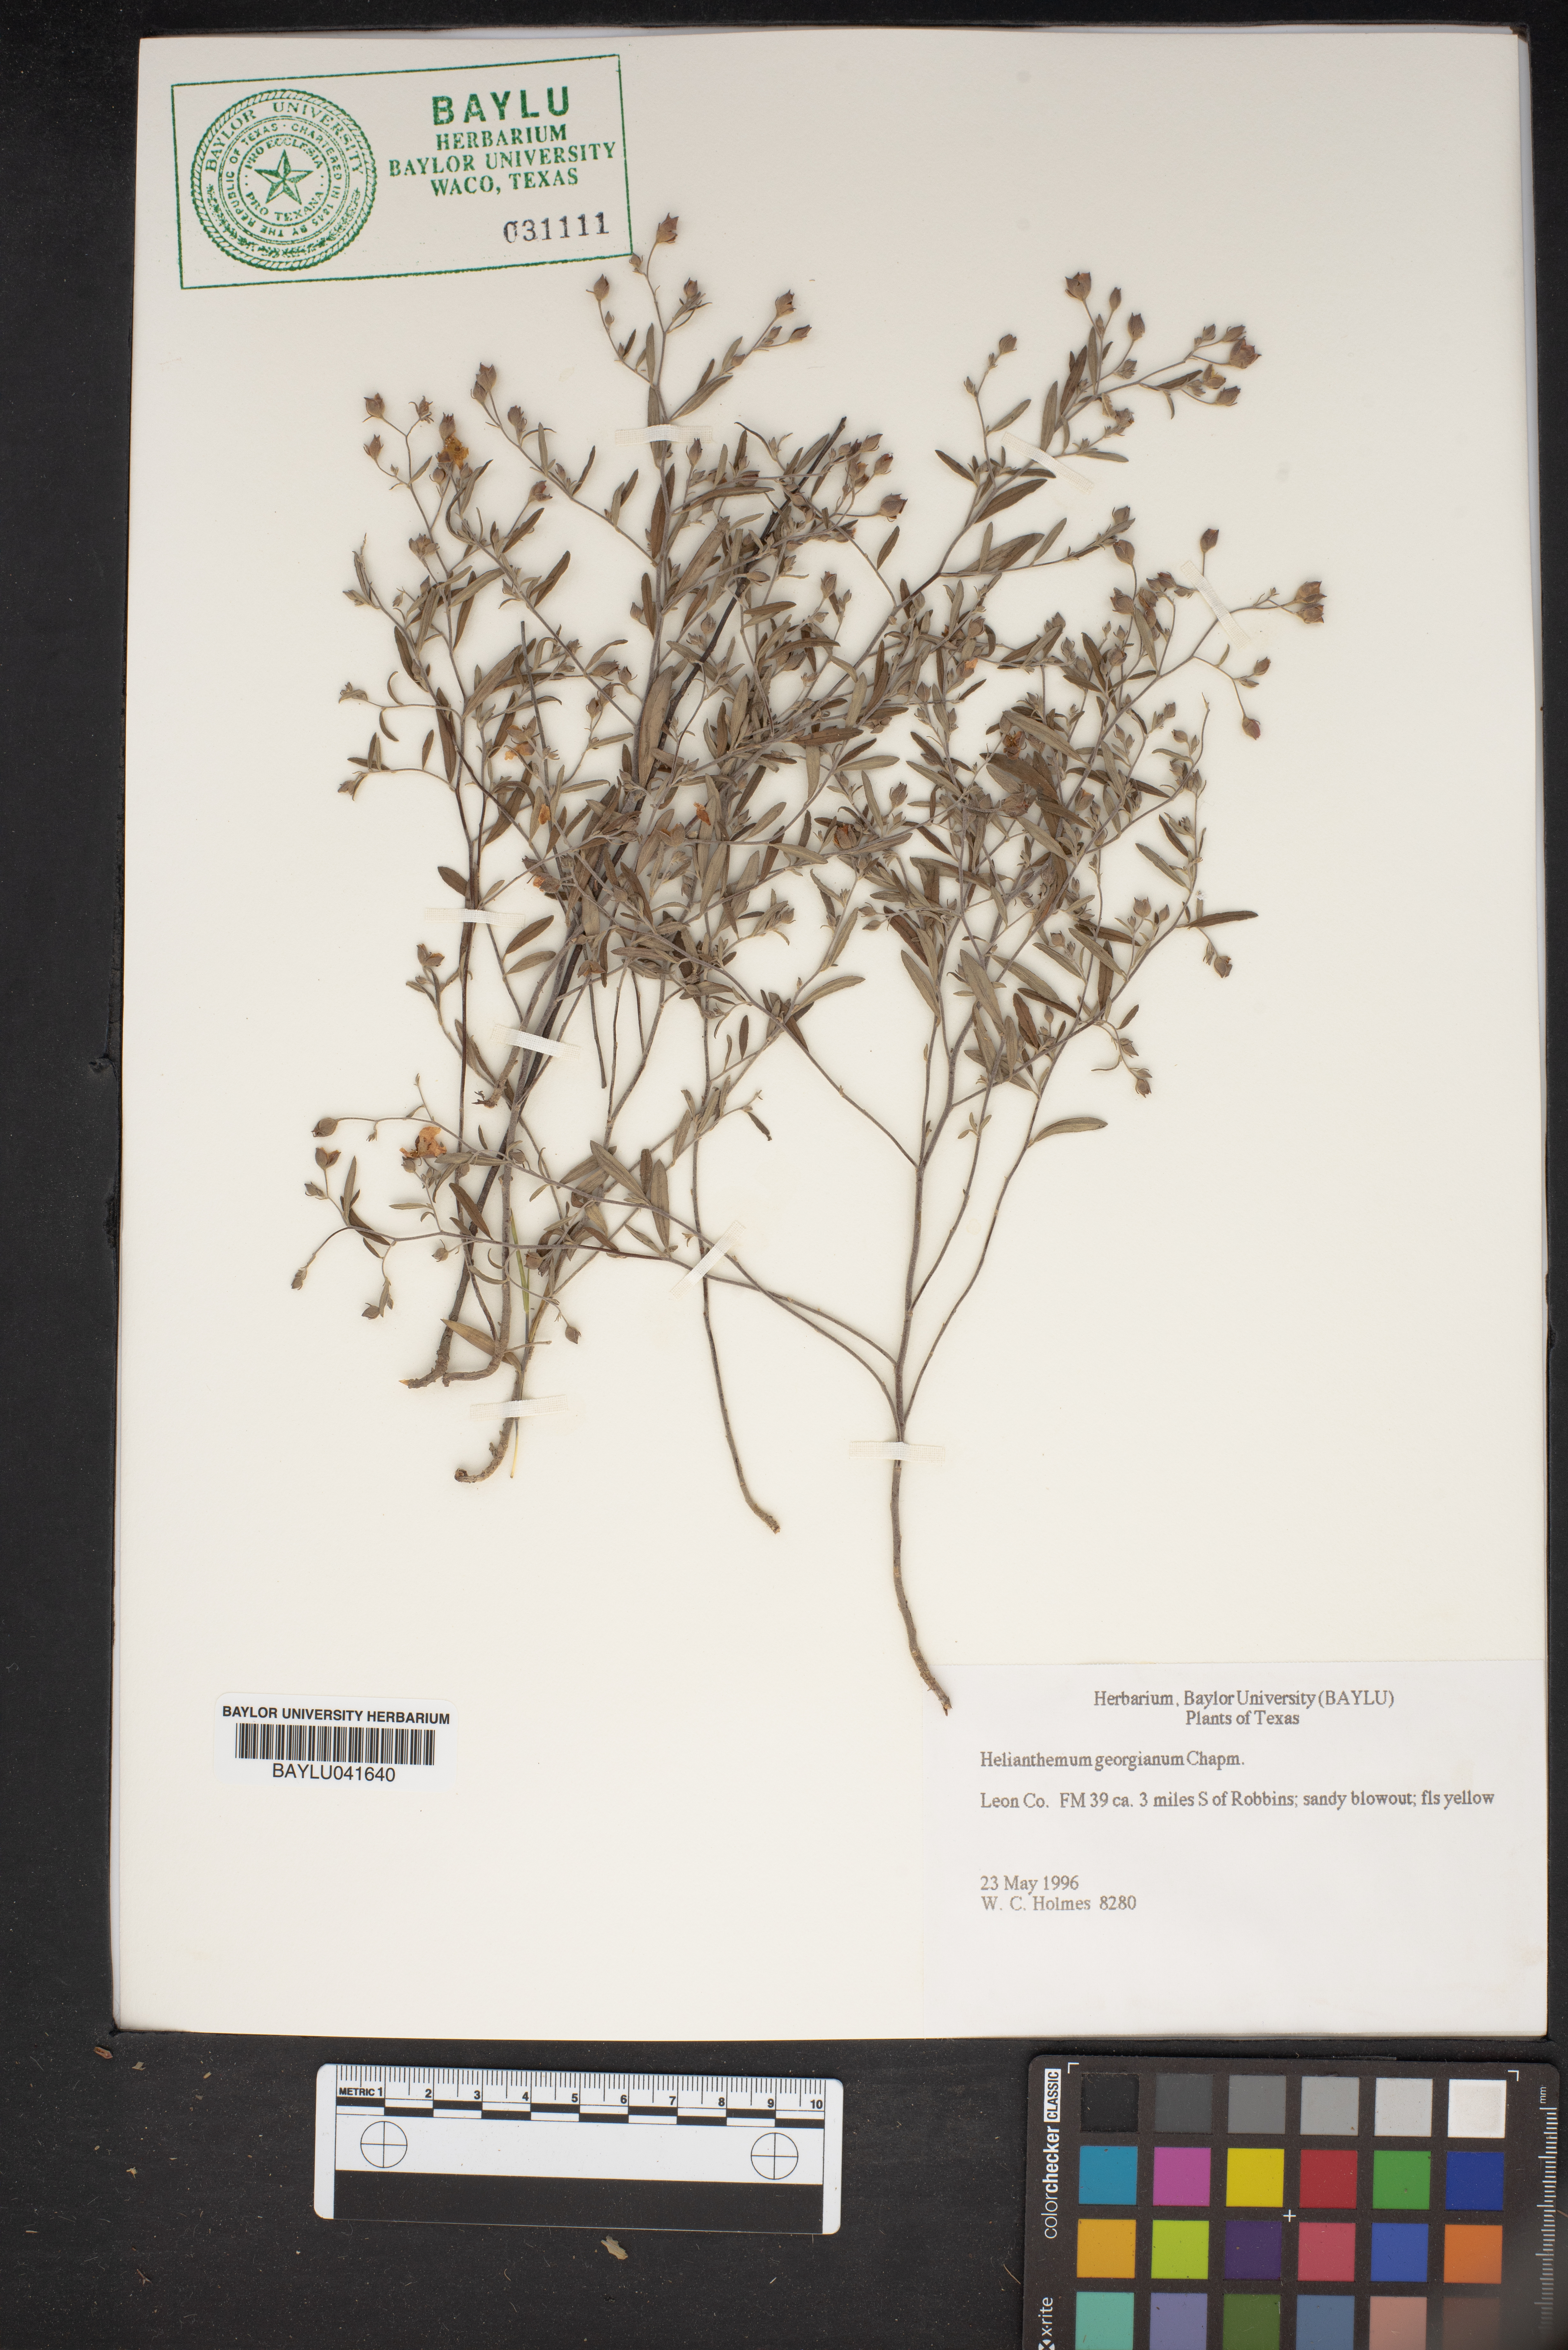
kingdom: Plantae
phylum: Tracheophyta
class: Magnoliopsida
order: Malvales
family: Cistaceae
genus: Crocanthemum
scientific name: Crocanthemum georgianum
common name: Georgia frostweed
